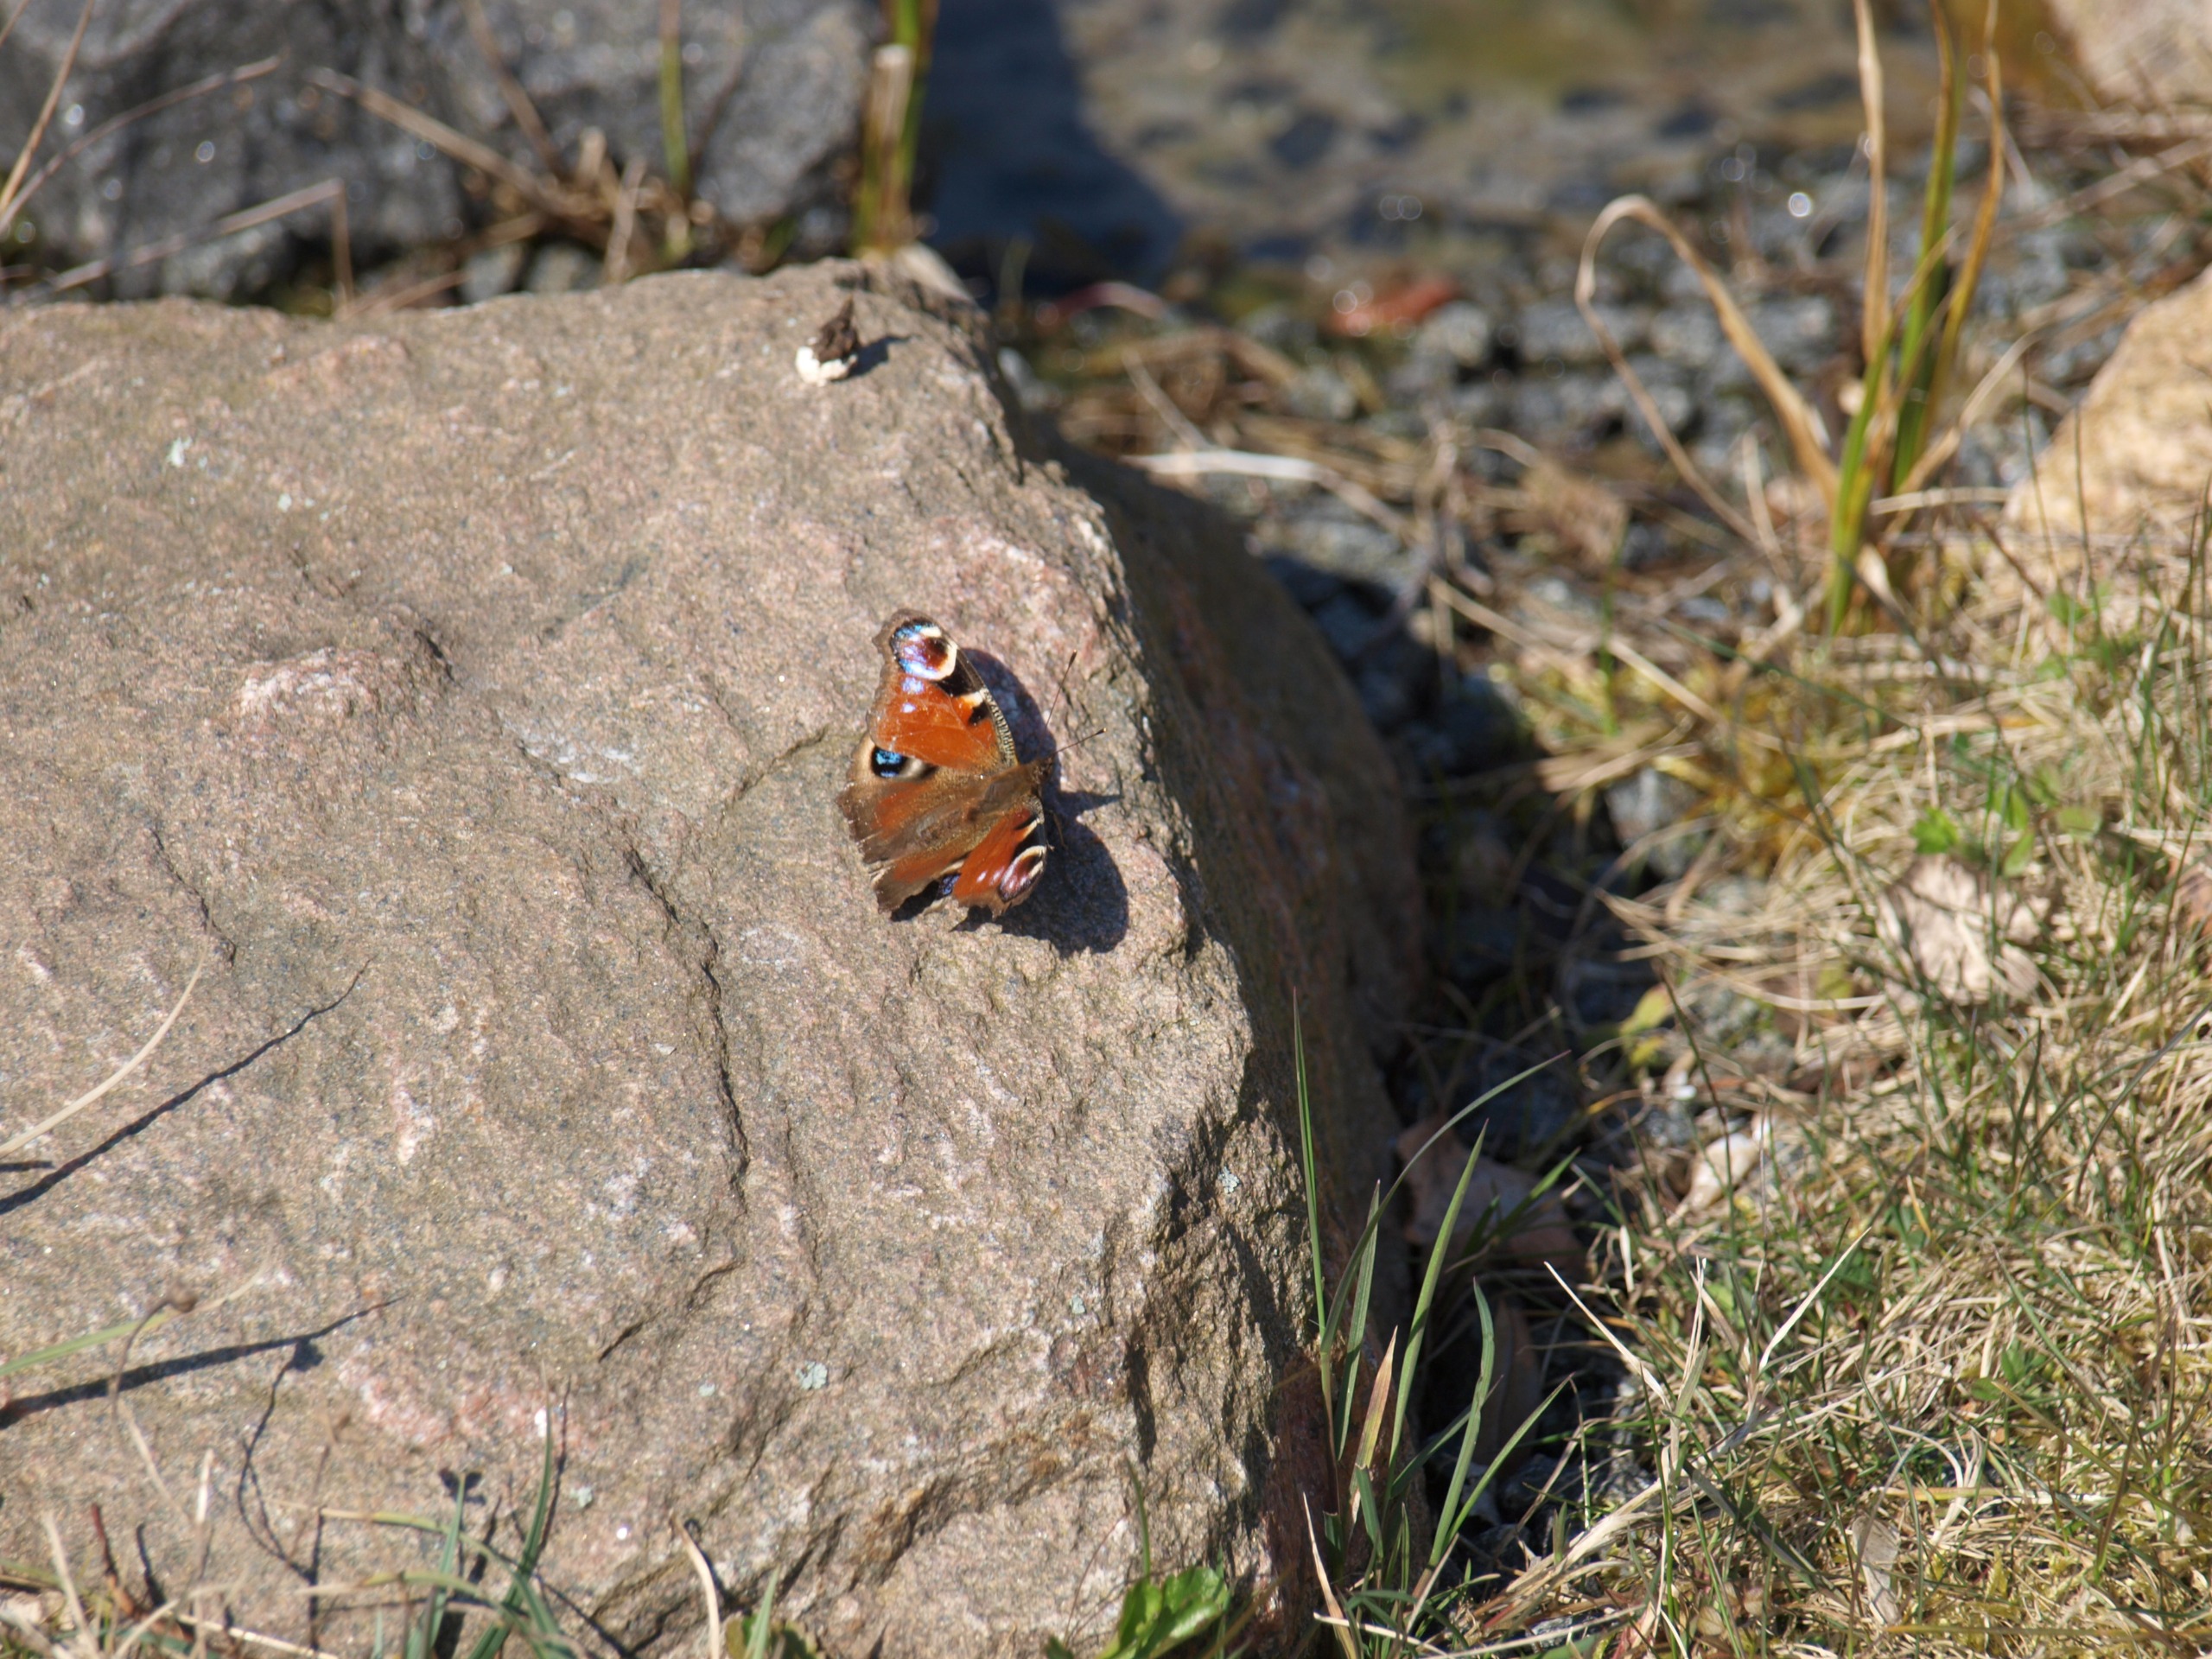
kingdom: Animalia
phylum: Arthropoda
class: Insecta
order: Lepidoptera
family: Nymphalidae
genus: Aglais
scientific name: Aglais io
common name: Dagpåfugleøje
